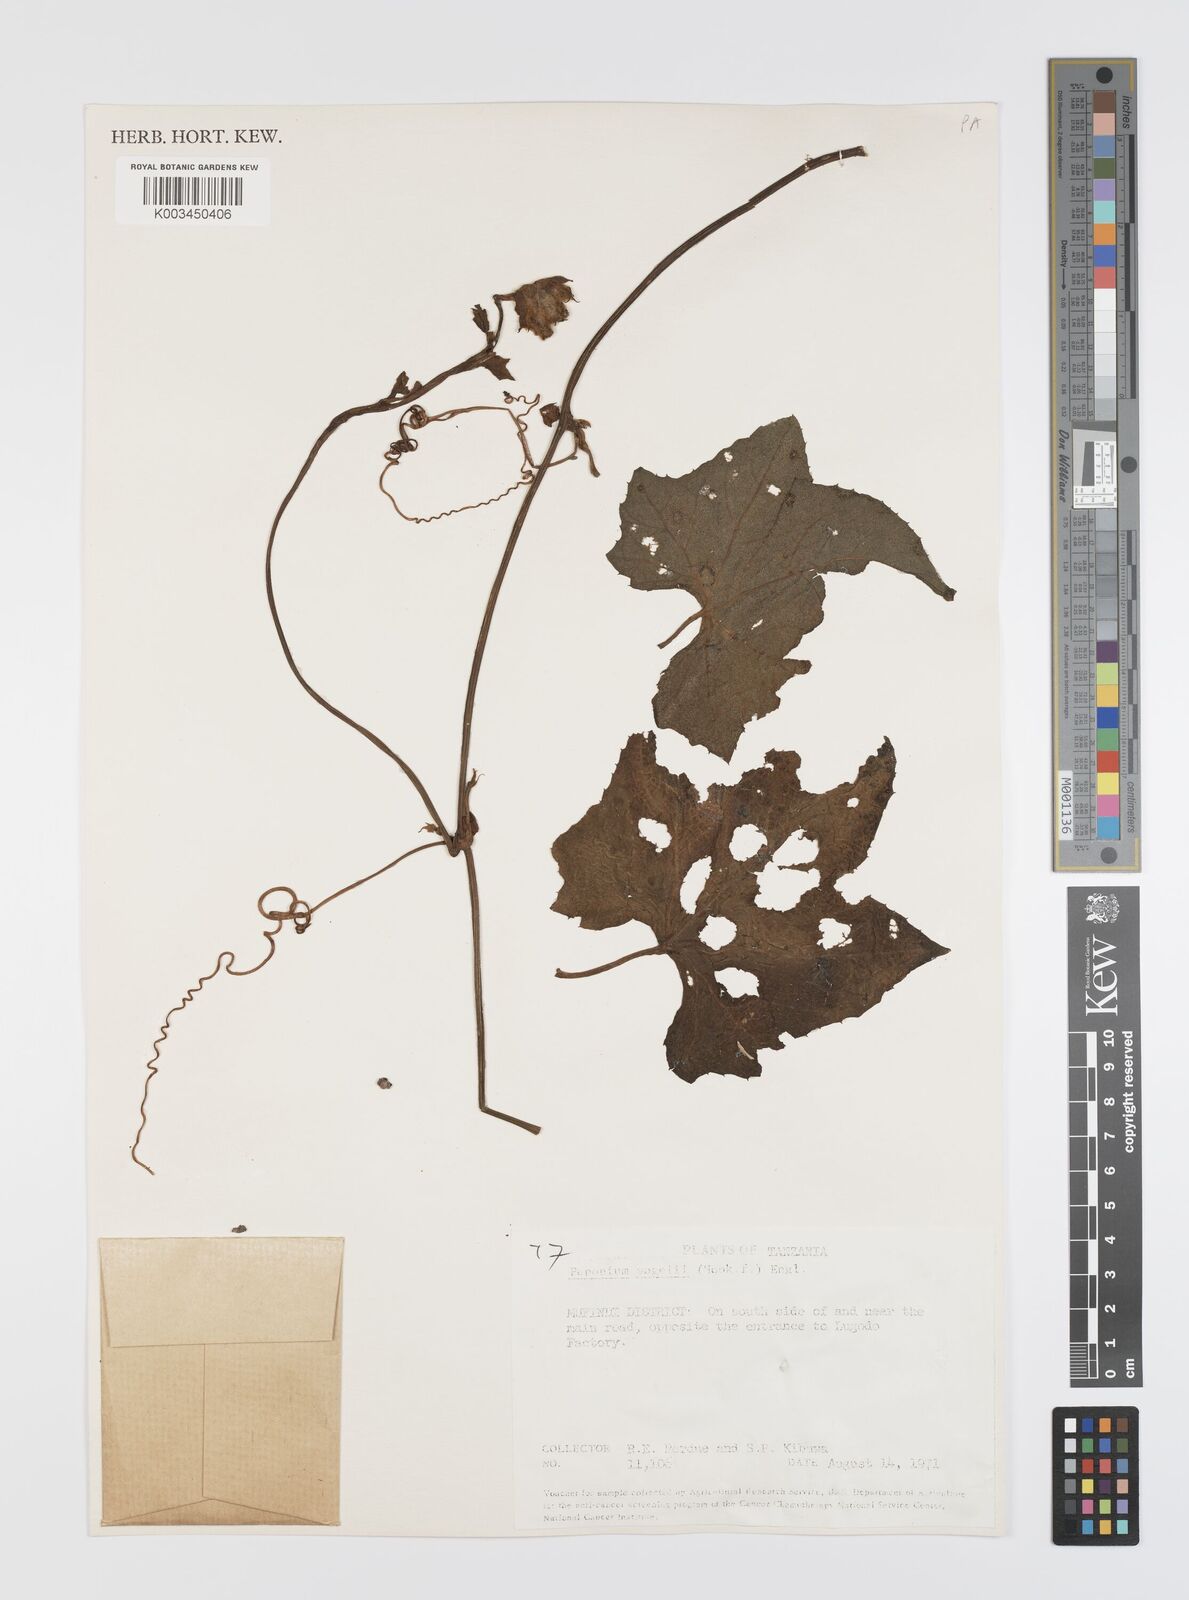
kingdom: Plantae
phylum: Tracheophyta
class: Magnoliopsida
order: Cucurbitales
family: Cucurbitaceae
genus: Peponium
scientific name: Peponium vogelii
